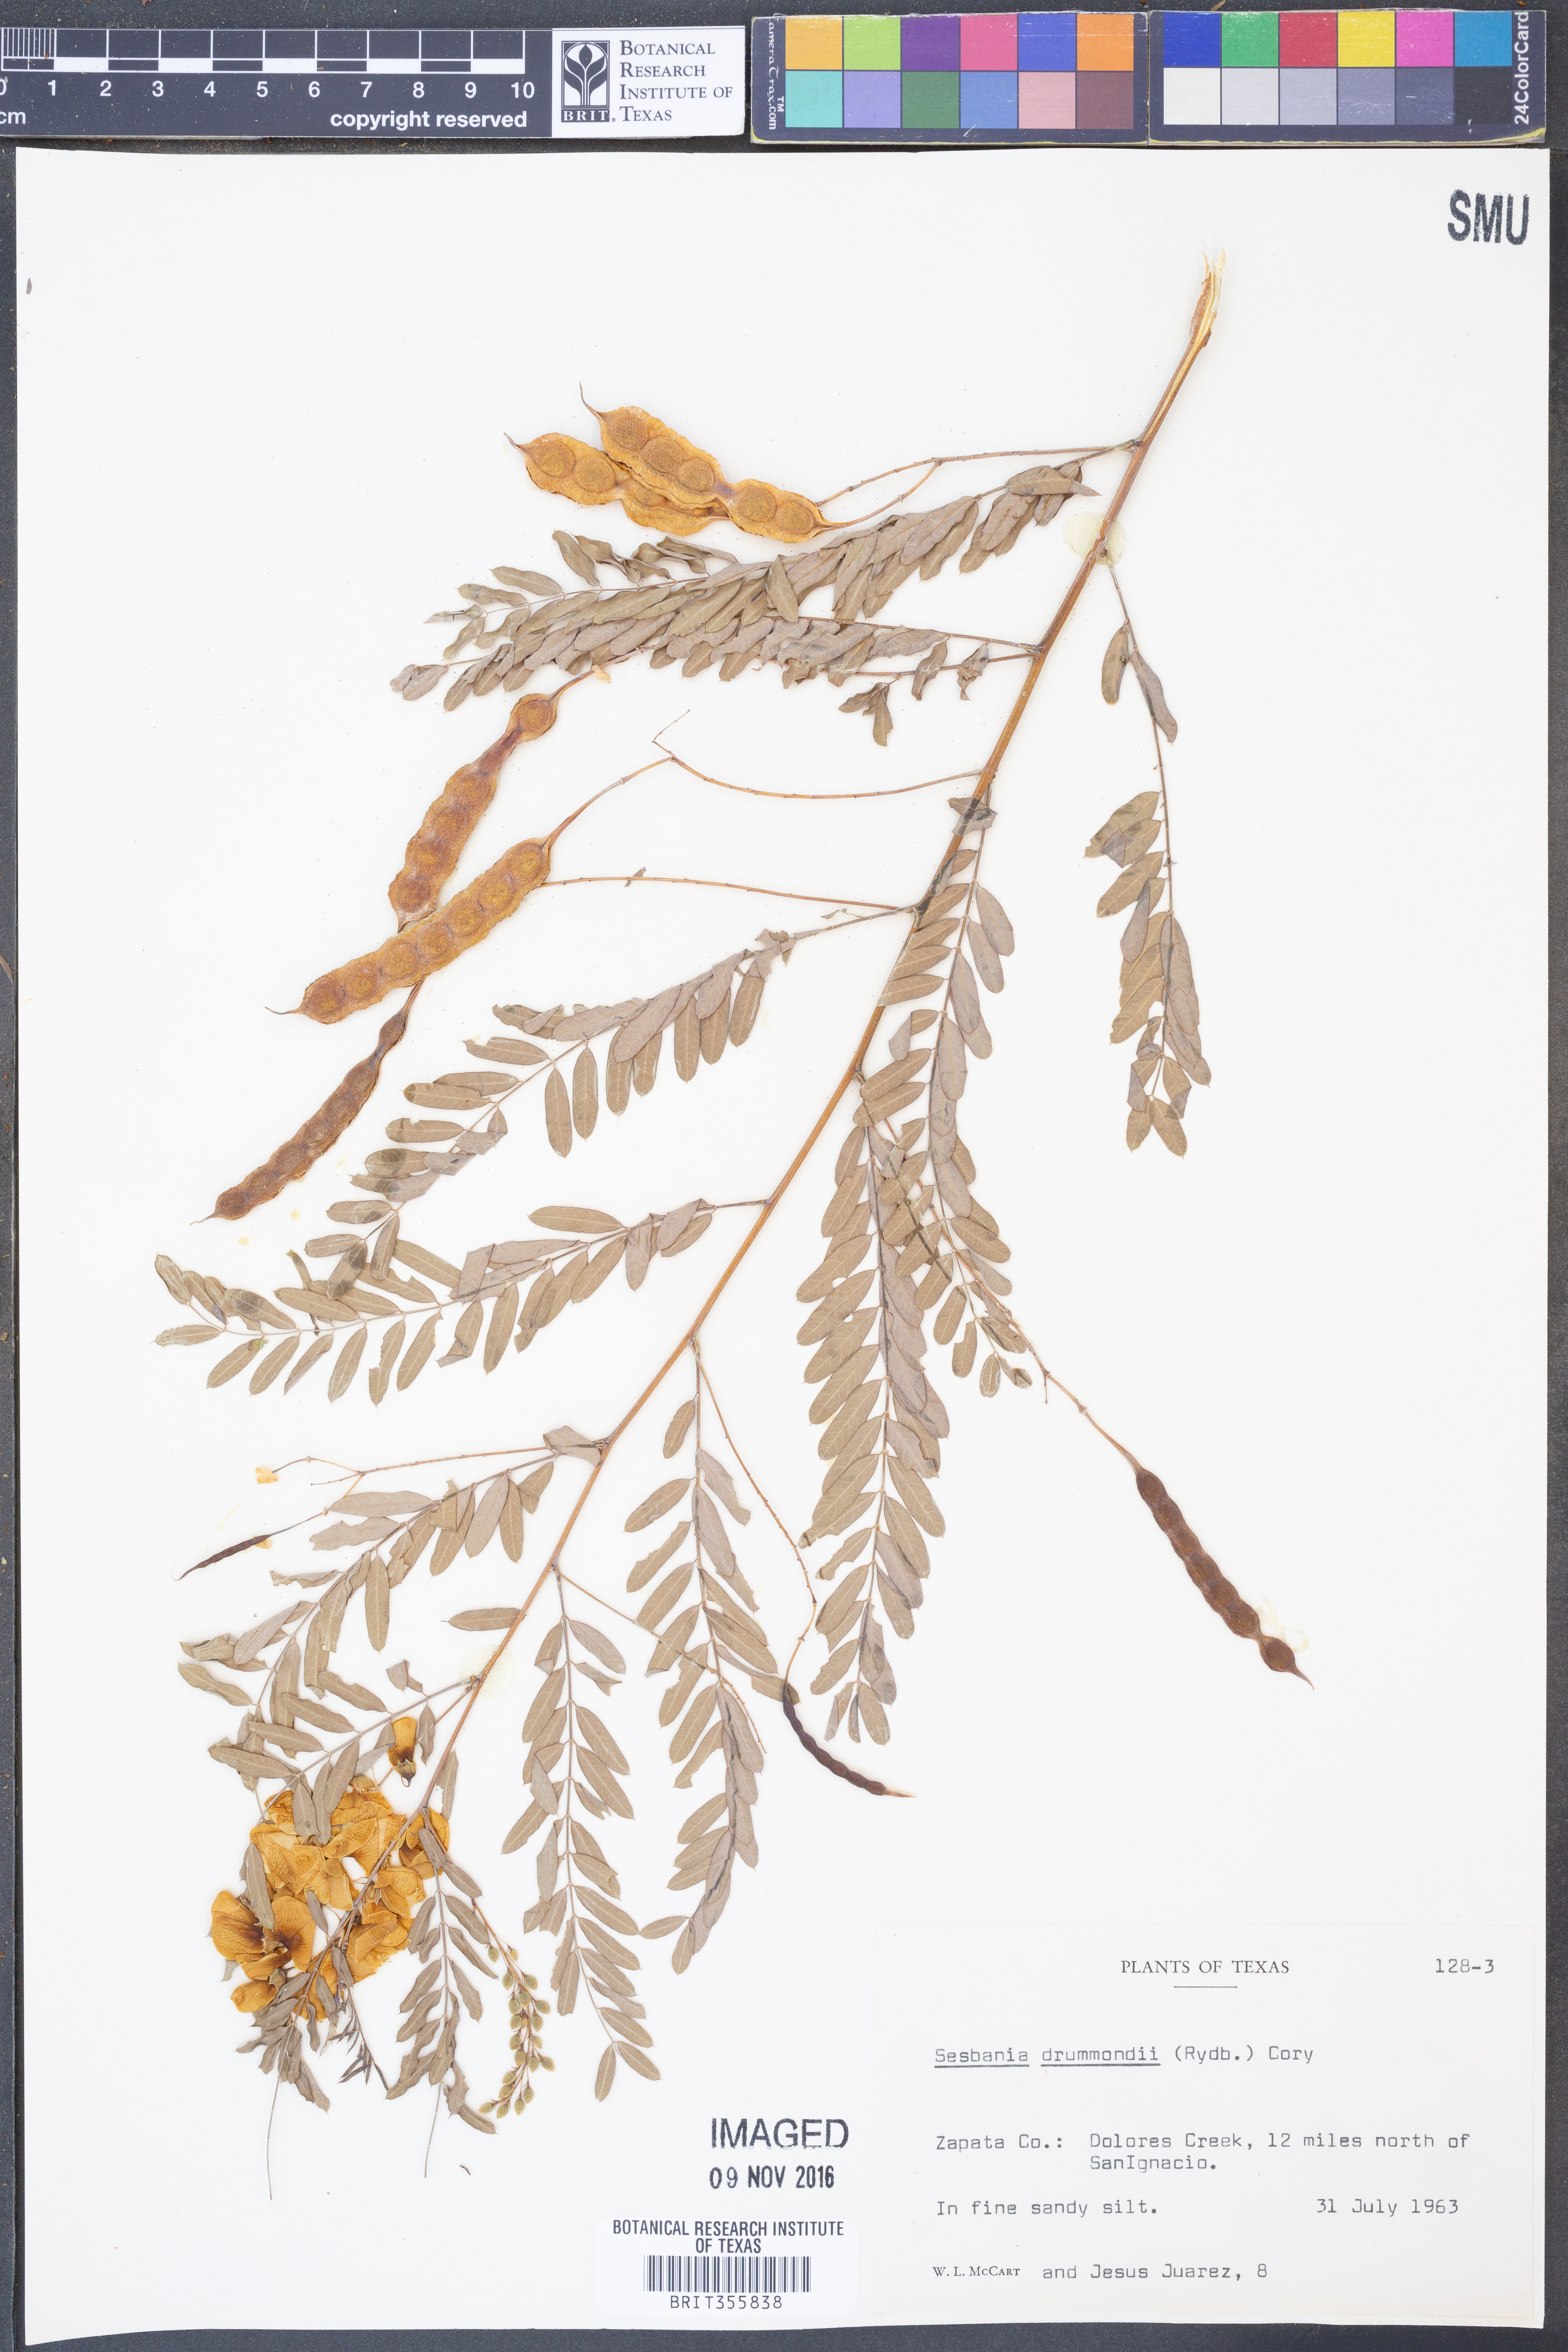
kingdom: Plantae
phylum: Tracheophyta
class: Magnoliopsida
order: Fabales
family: Fabaceae
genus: Sesbania
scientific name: Sesbania drummondii
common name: Poison-bean
